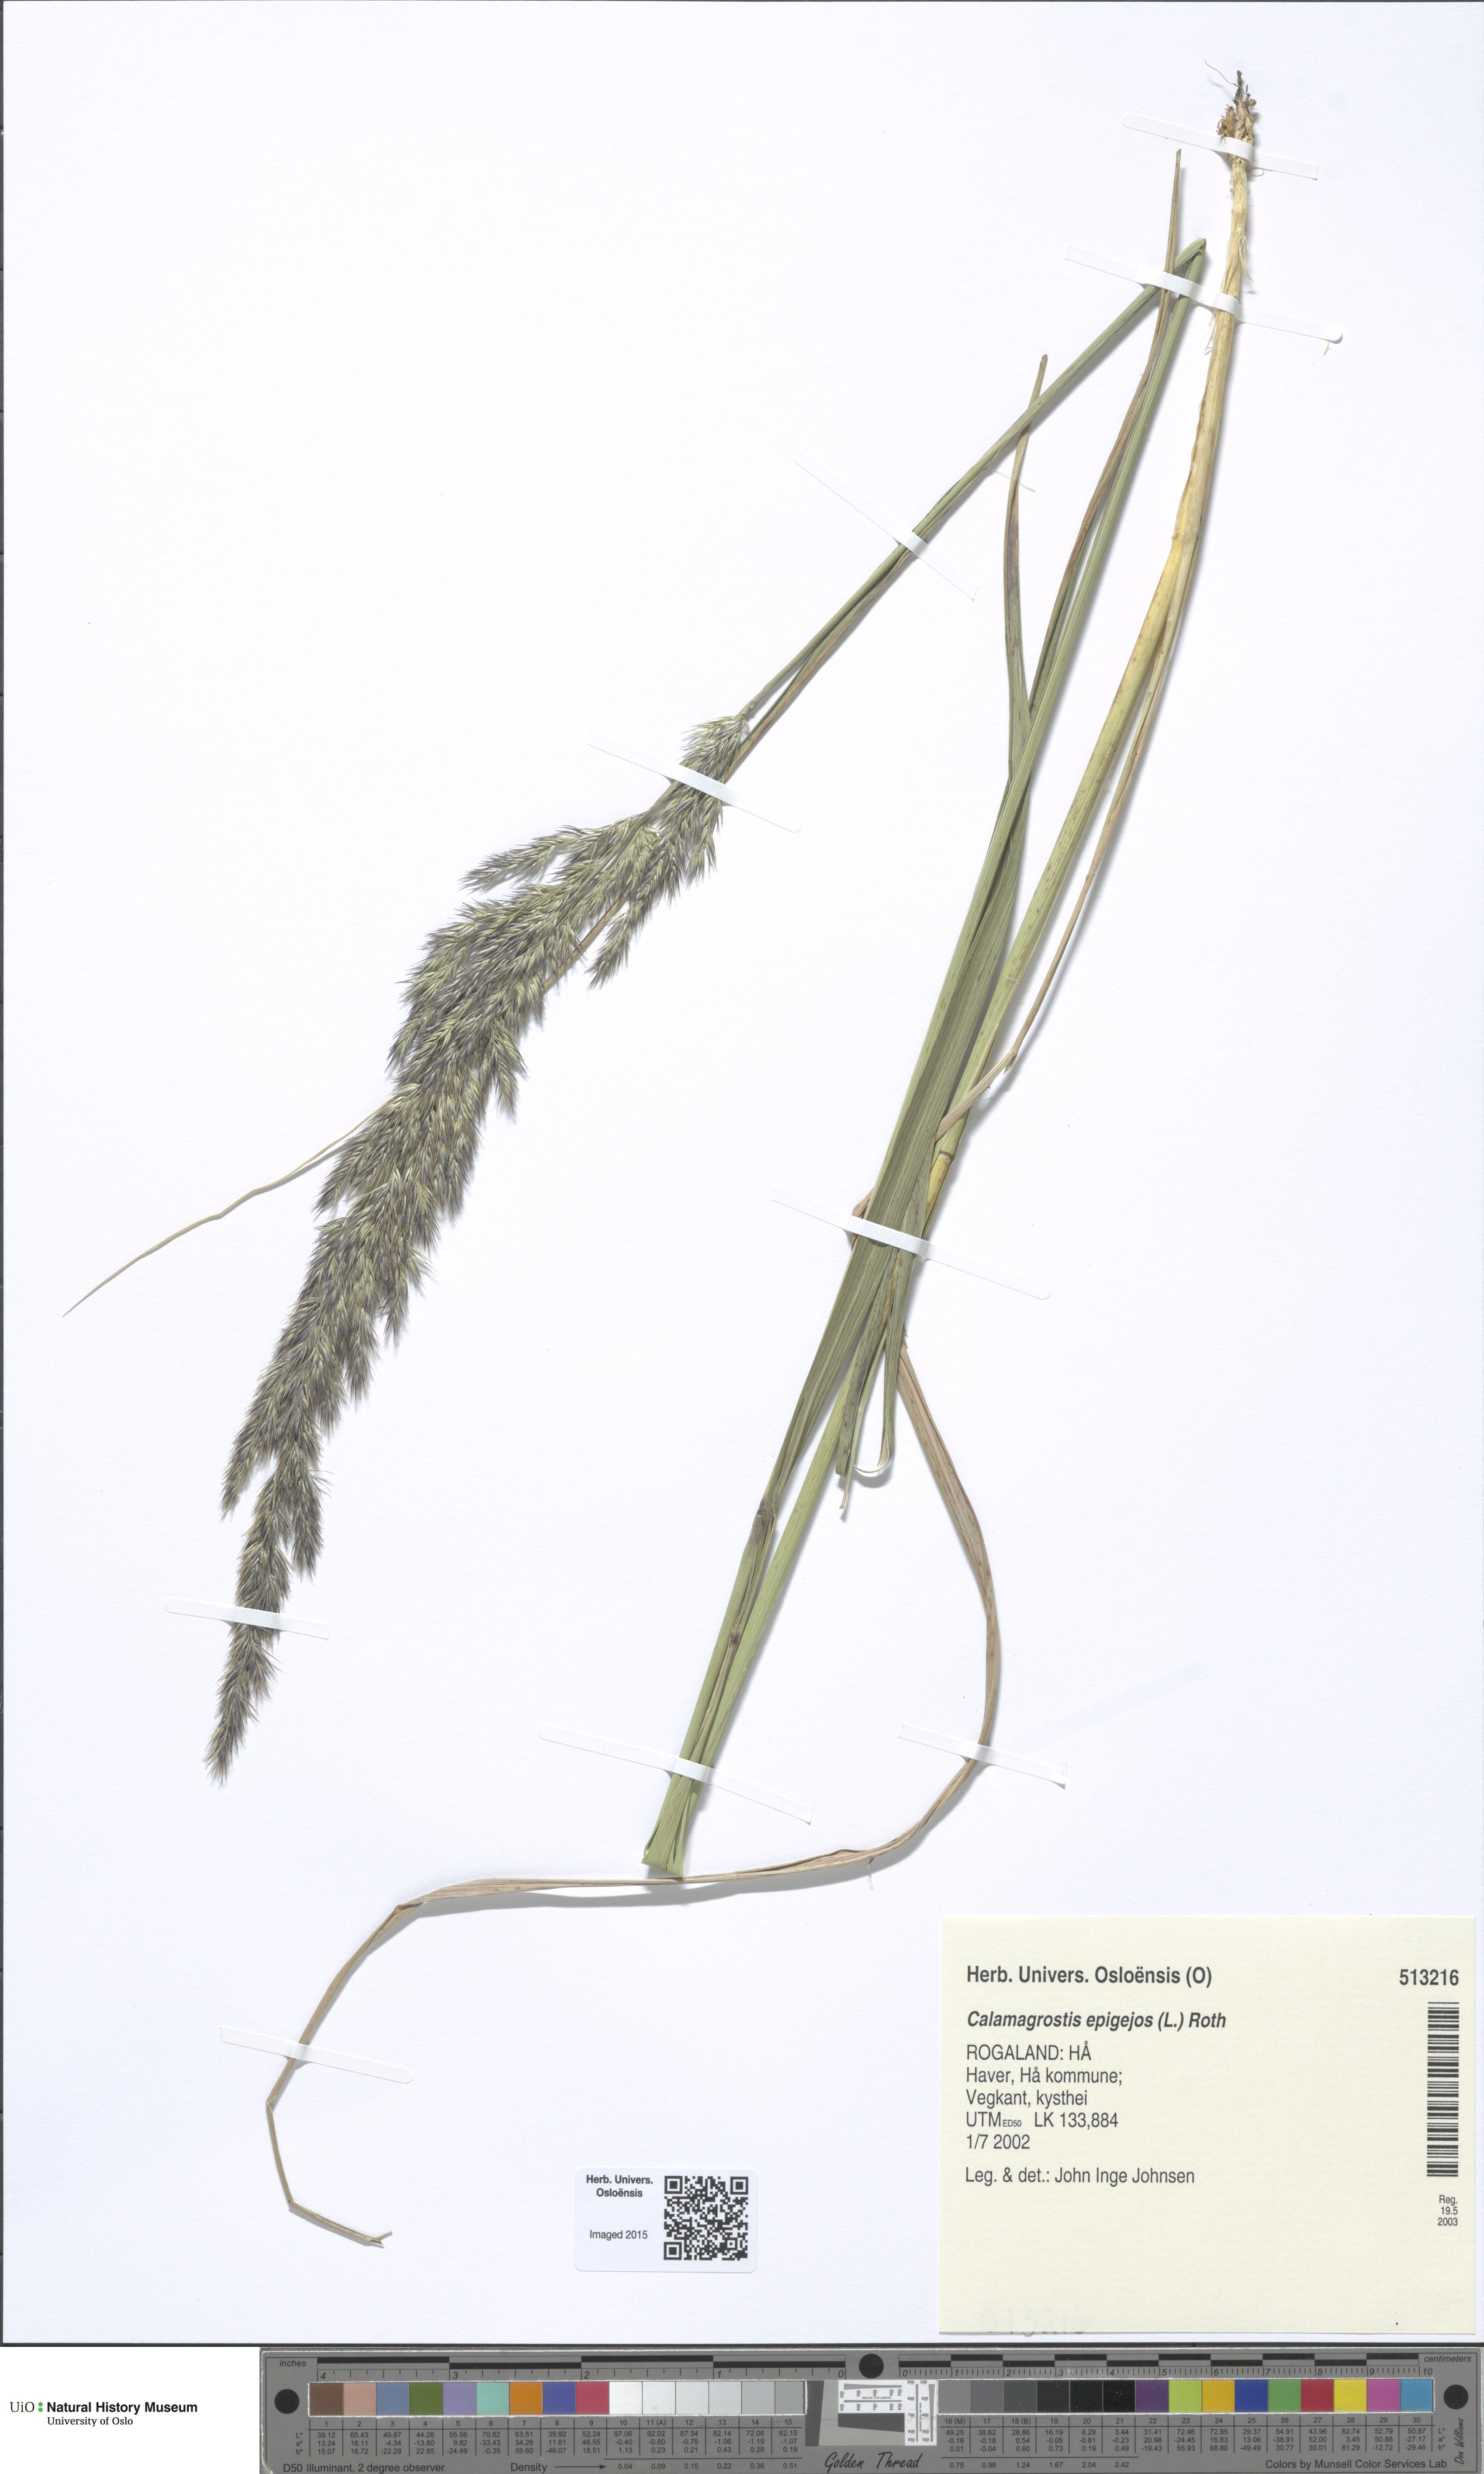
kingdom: Plantae
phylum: Tracheophyta
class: Liliopsida
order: Poales
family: Poaceae
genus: Calamagrostis
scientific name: Calamagrostis epigejos
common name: Wood small-reed
